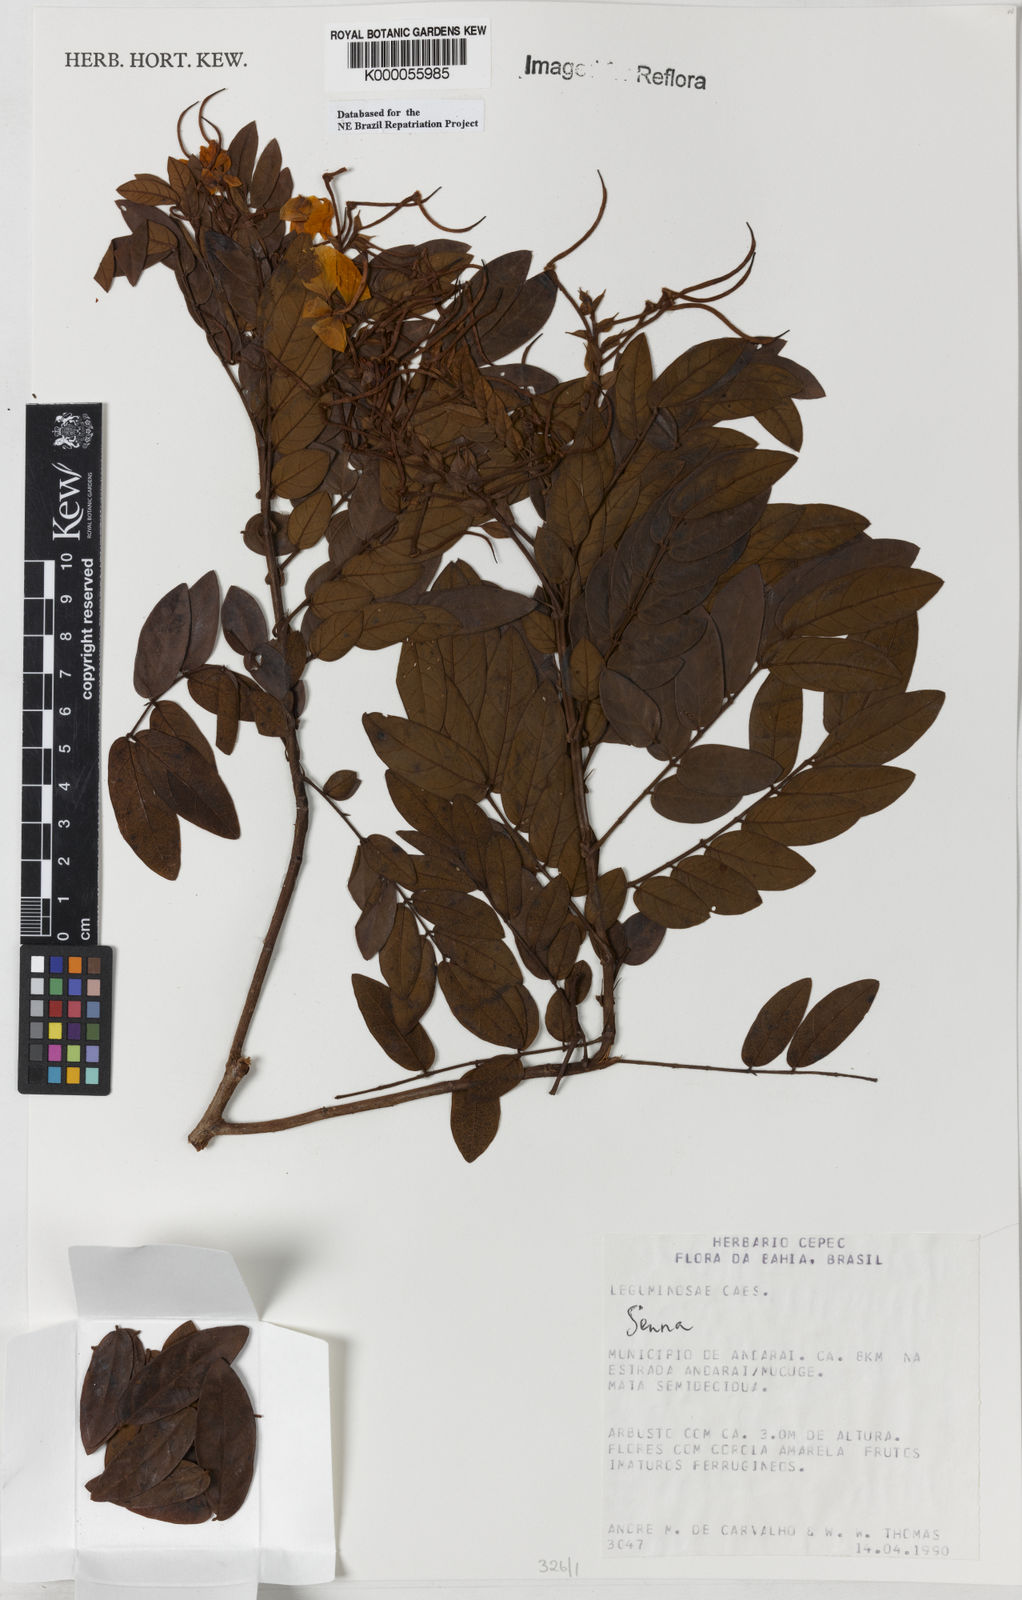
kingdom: Plantae
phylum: Tracheophyta
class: Magnoliopsida
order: Fabales
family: Fabaceae
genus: Senna
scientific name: Senna
